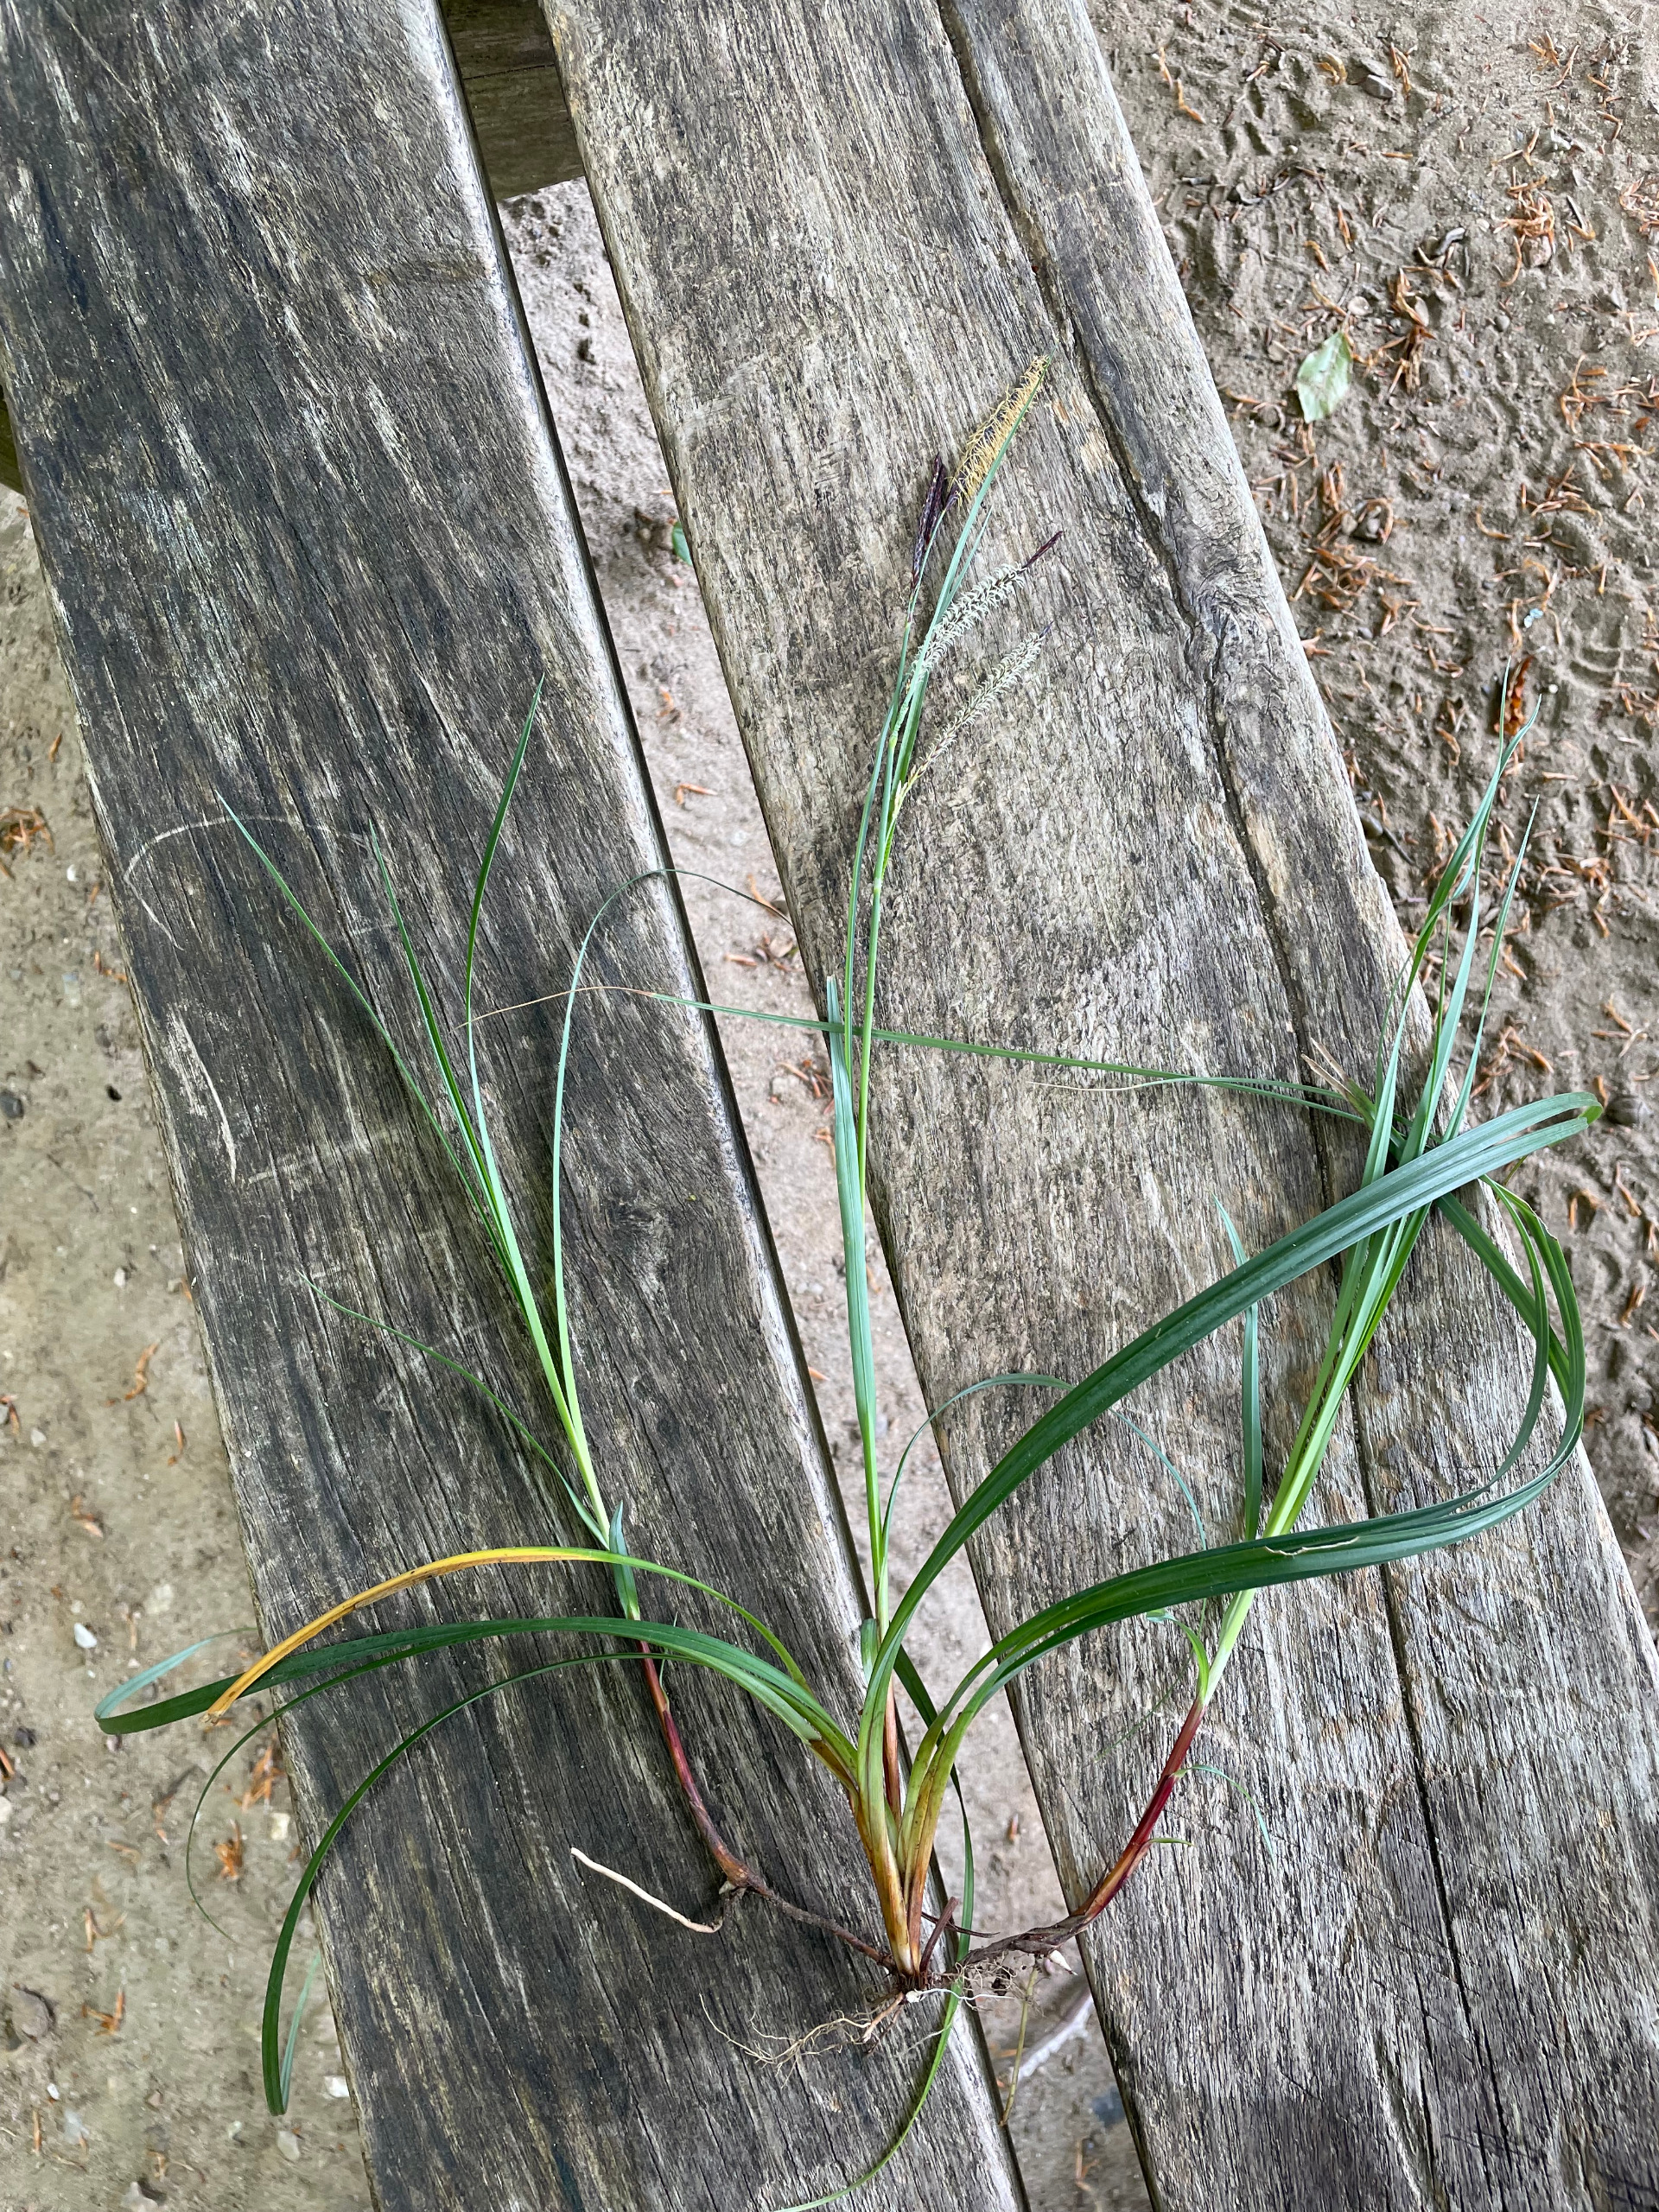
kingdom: Plantae
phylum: Tracheophyta
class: Liliopsida
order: Poales
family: Cyperaceae
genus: Carex
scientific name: Carex flacca
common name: Blågrøn star
